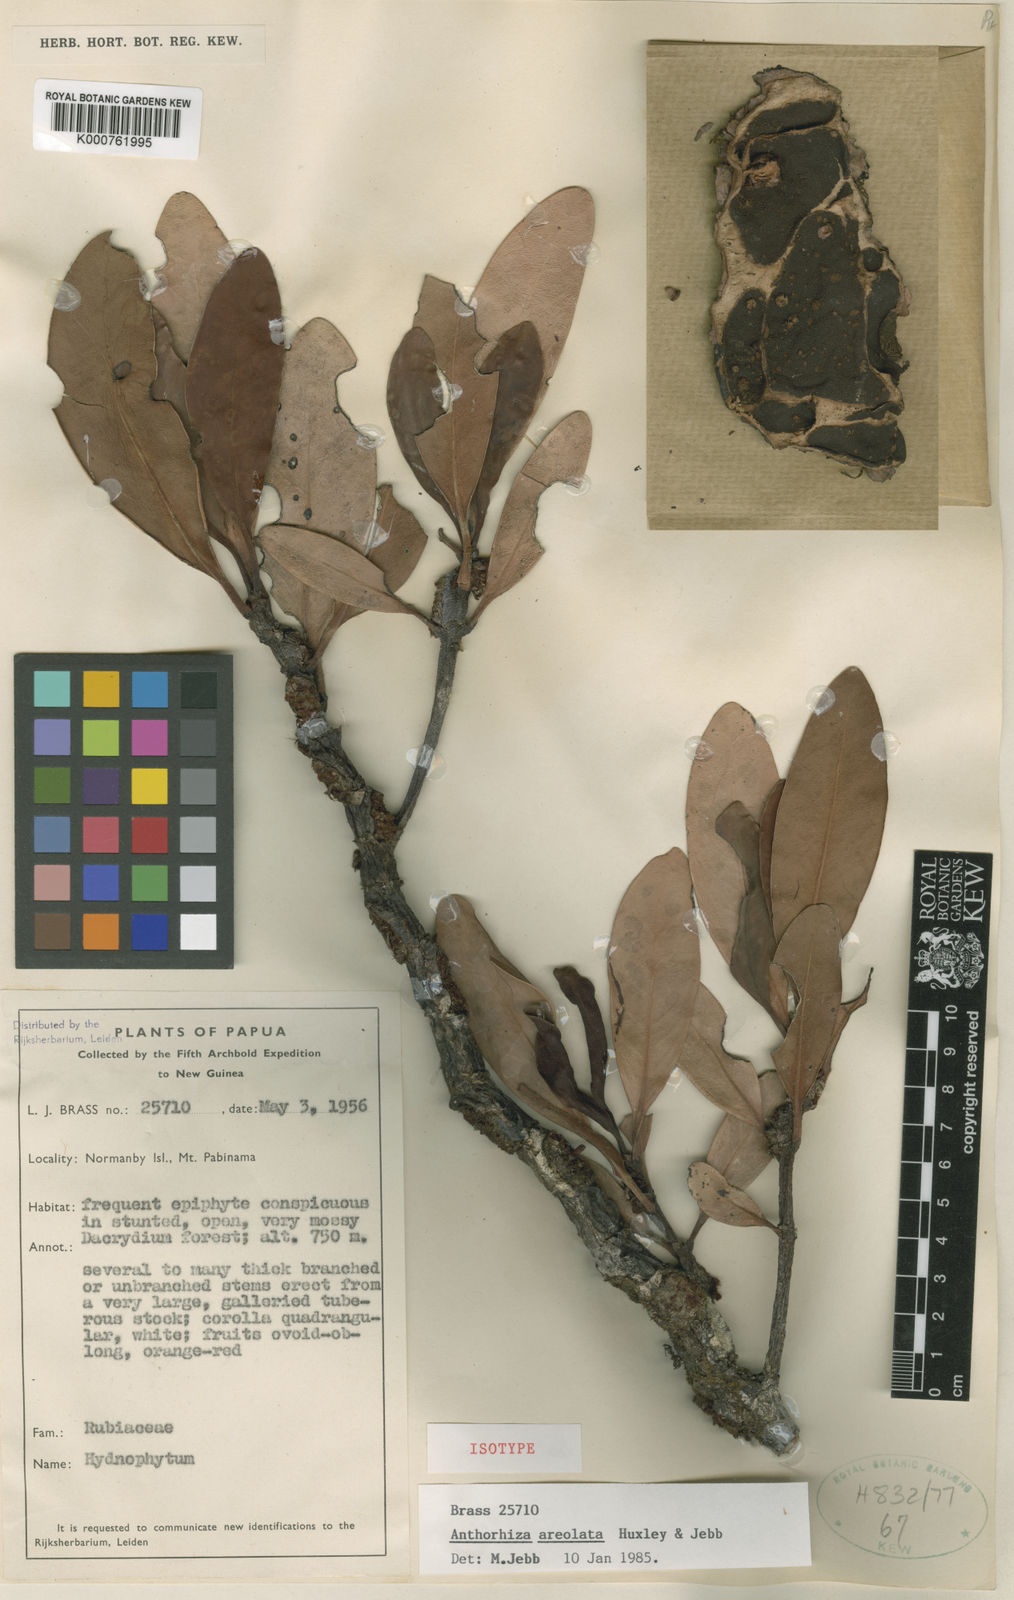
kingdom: Plantae
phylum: Tracheophyta
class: Magnoliopsida
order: Gentianales
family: Rubiaceae
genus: Anthorrhiza
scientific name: Anthorrhiza areolata
